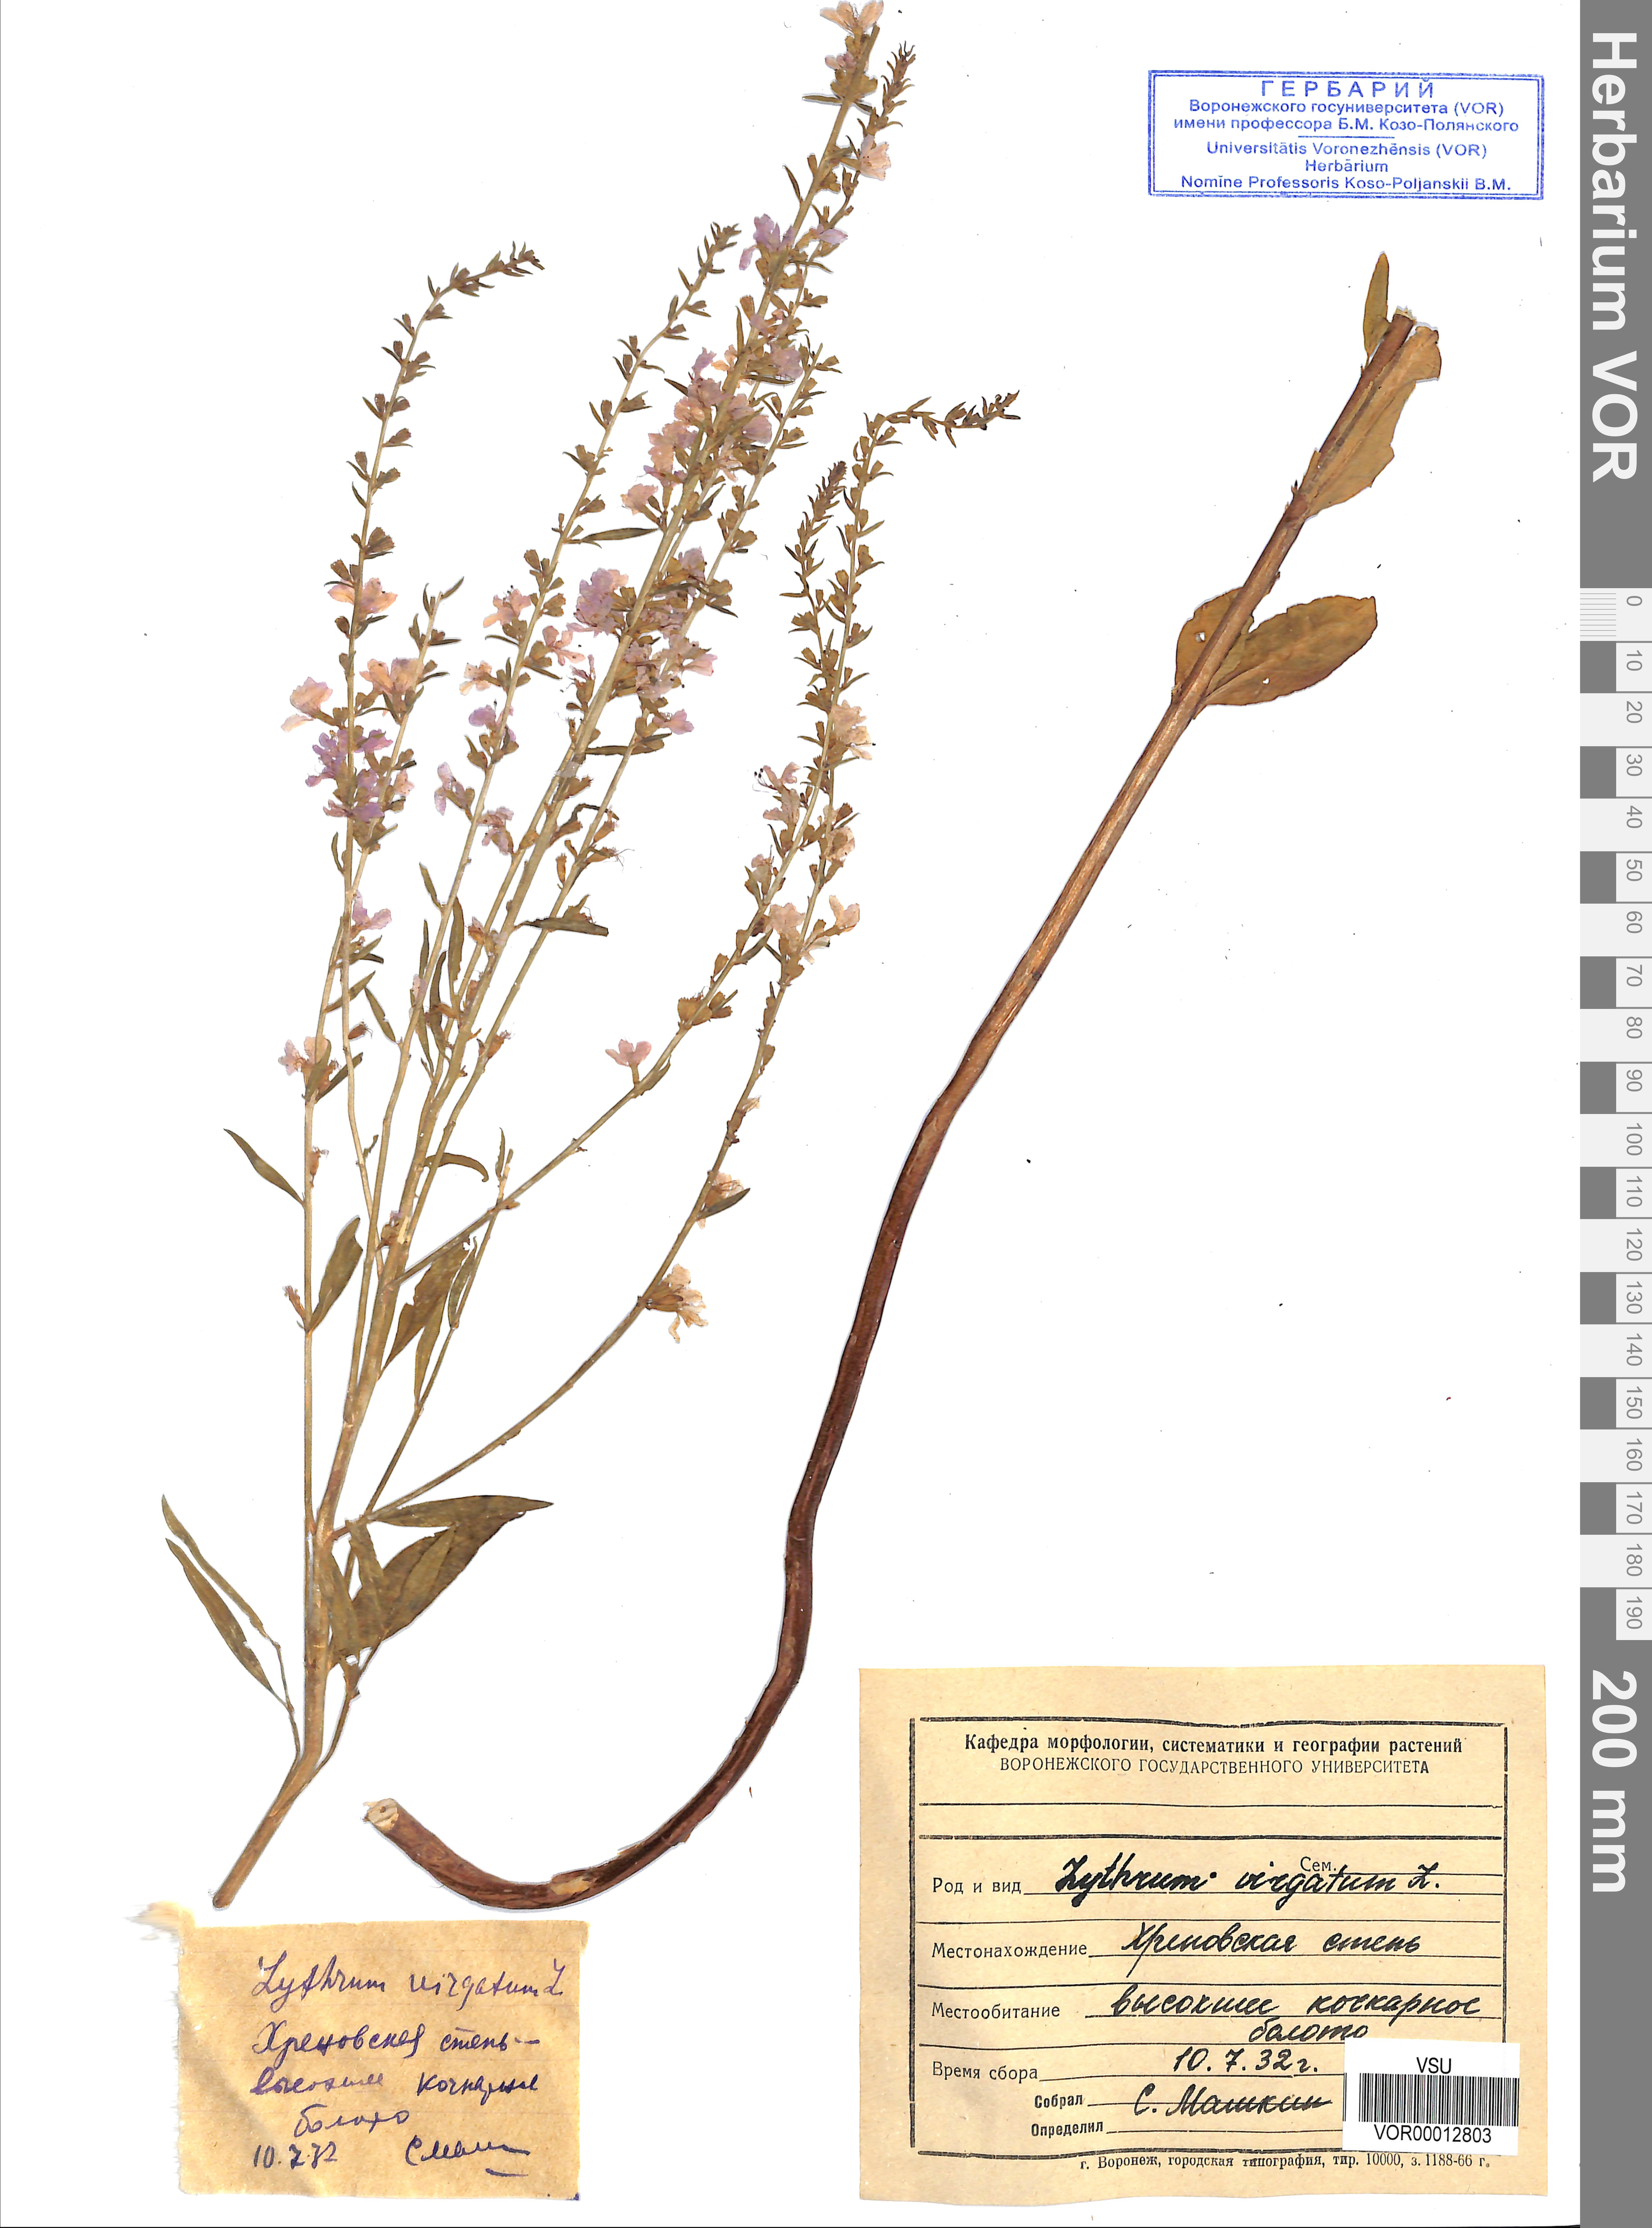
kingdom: Plantae
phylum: Tracheophyta
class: Magnoliopsida
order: Myrtales
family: Lythraceae
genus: Lythrum
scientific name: Lythrum virgatum
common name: European wand loosestrife
